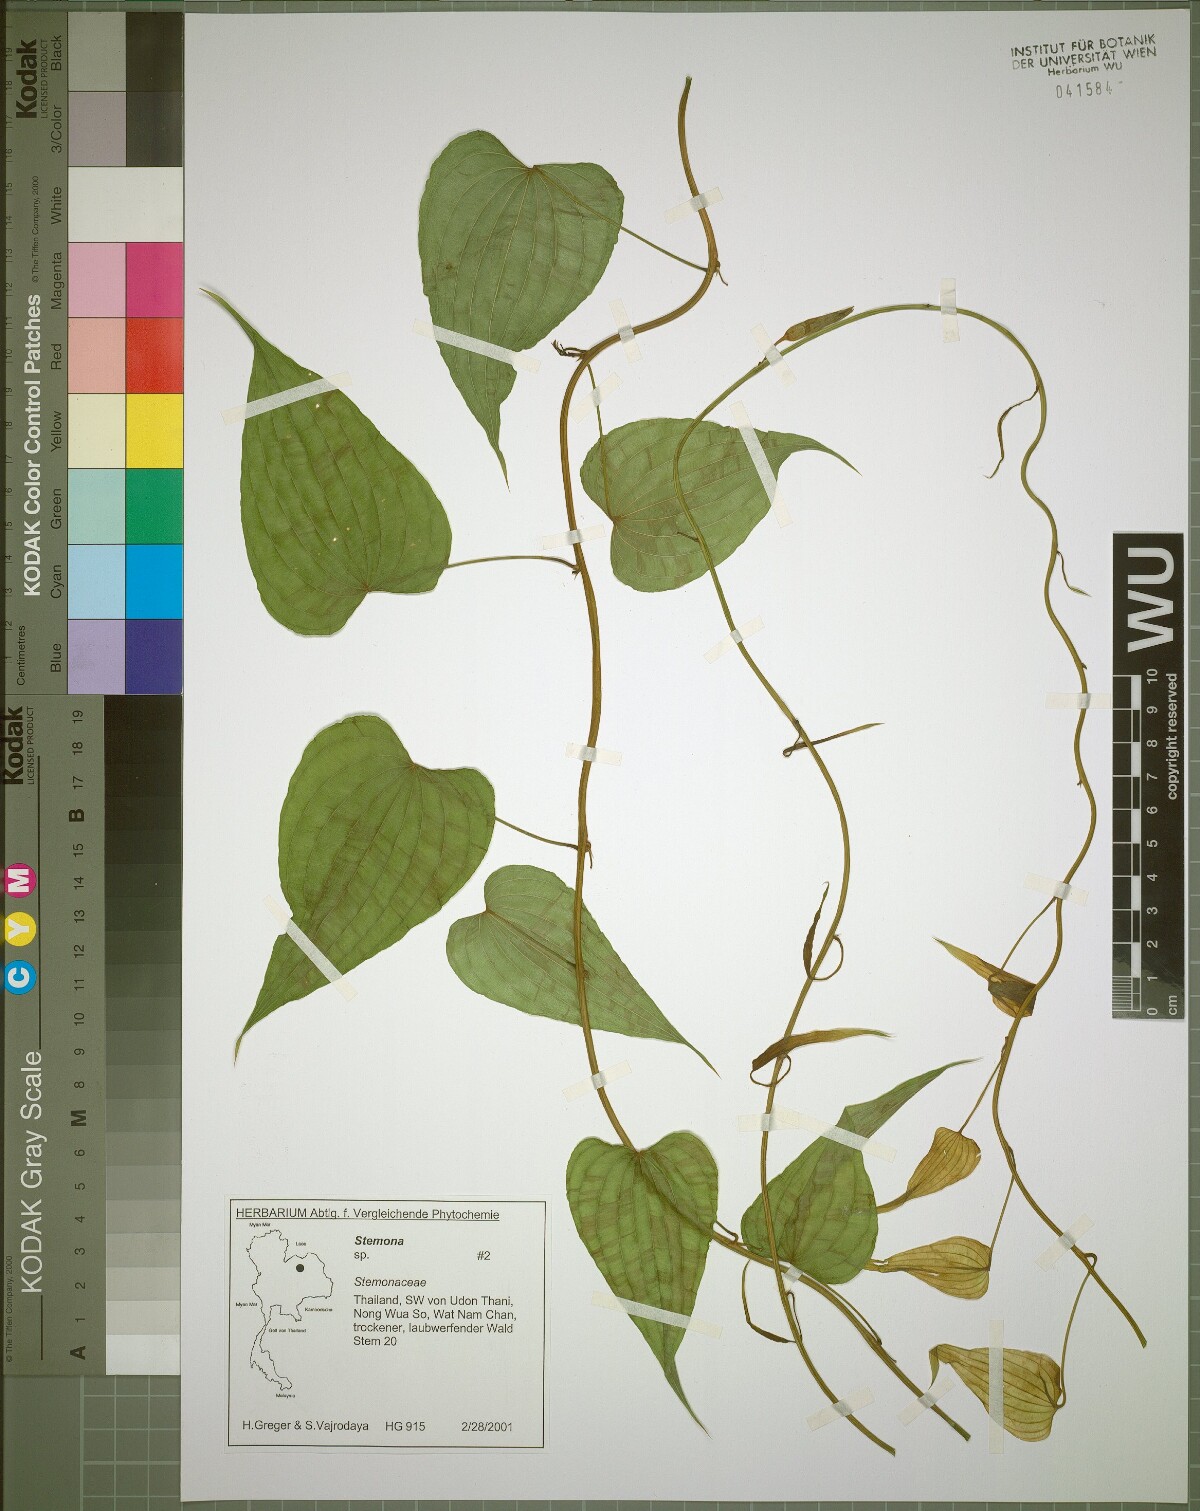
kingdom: Plantae
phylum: Tracheophyta
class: Liliopsida
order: Pandanales
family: Stemonaceae
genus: Stemona
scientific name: Stemona aphylla
